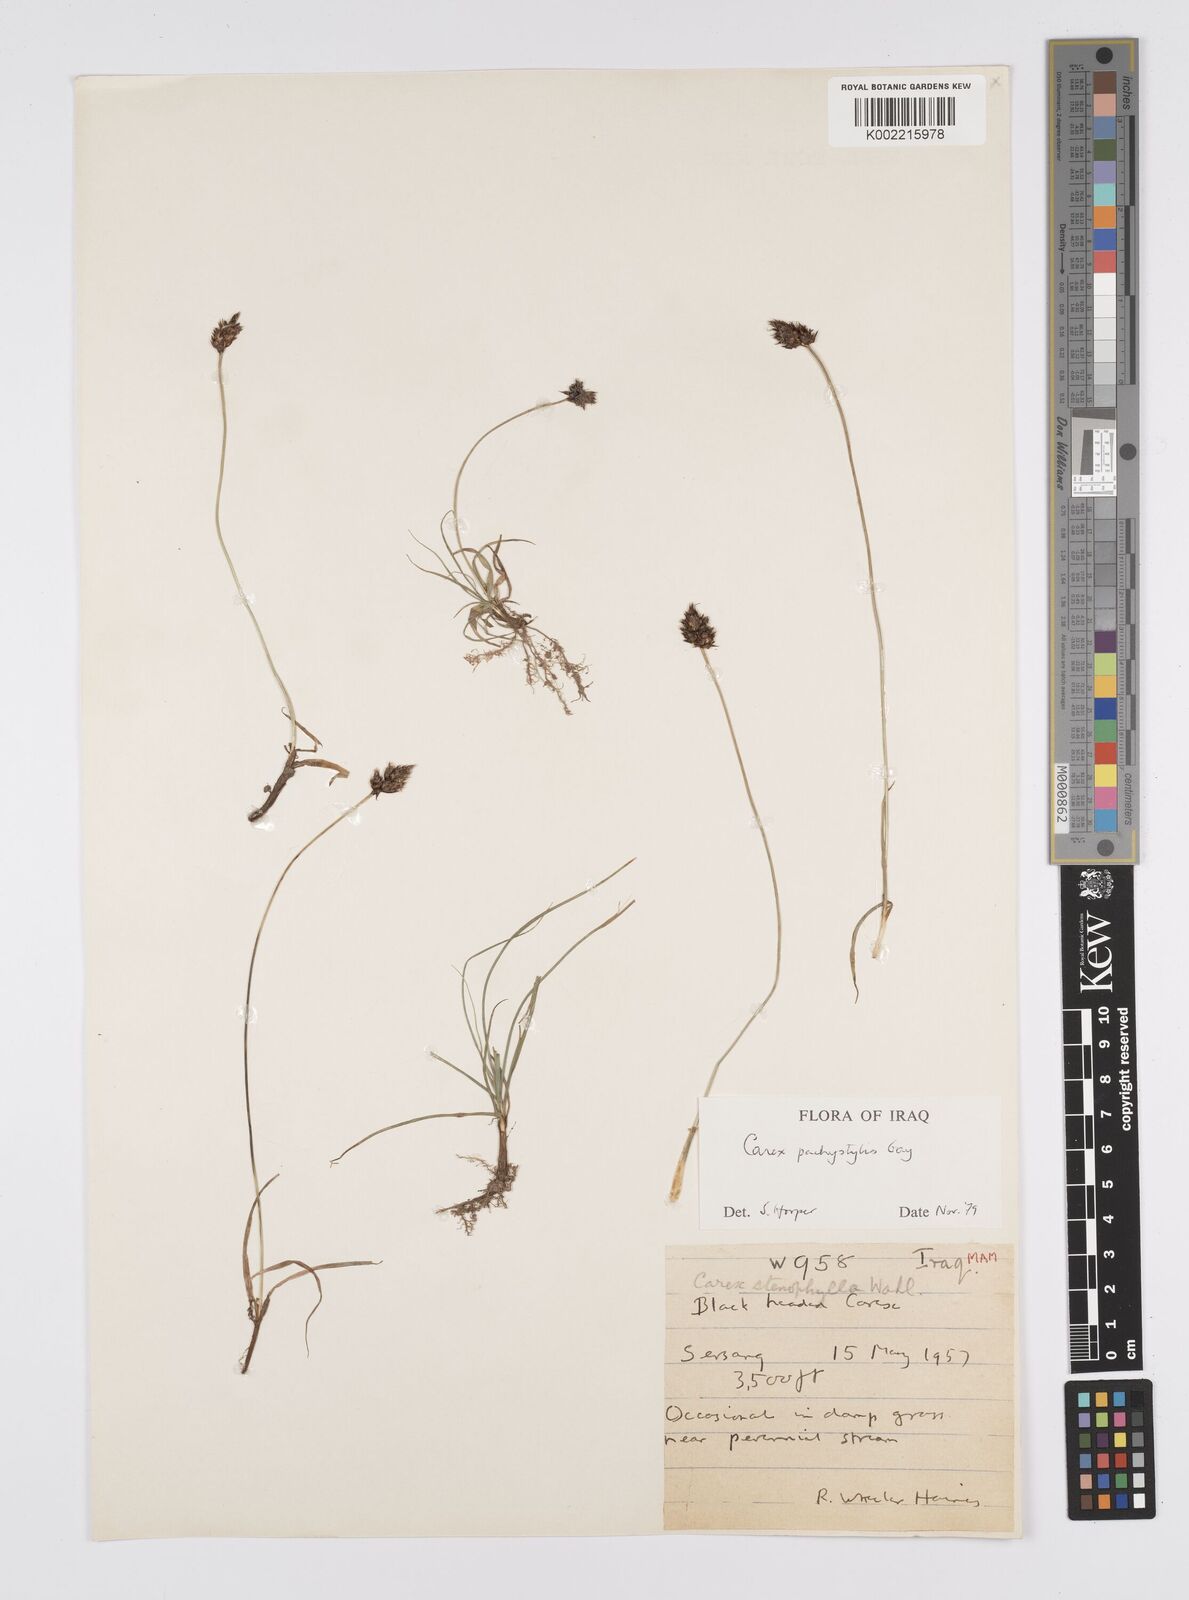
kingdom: Plantae
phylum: Tracheophyta
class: Liliopsida
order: Poales
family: Cyperaceae
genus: Carex
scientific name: Carex pachystylis
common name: Thick-stem sedge
